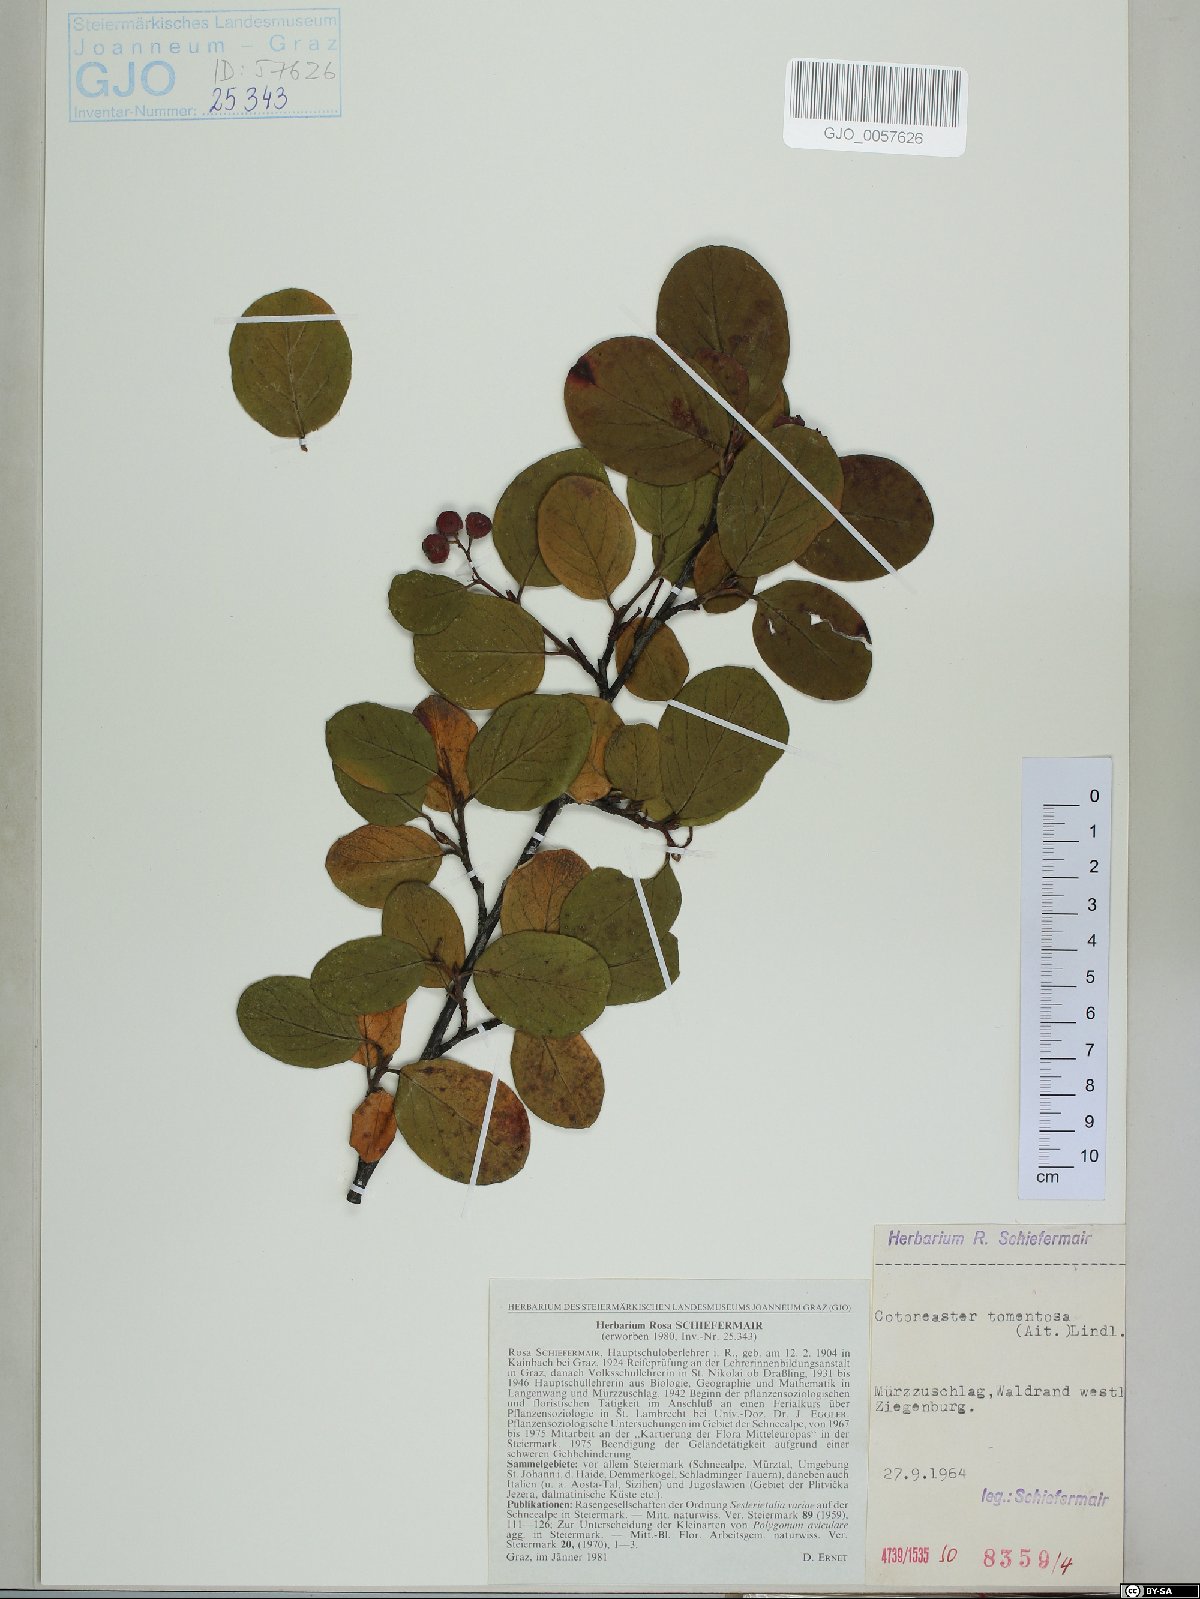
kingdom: Plantae
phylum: Tracheophyta
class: Magnoliopsida
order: Rosales
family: Rosaceae
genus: Cotoneaster
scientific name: Cotoneaster tomentosus
